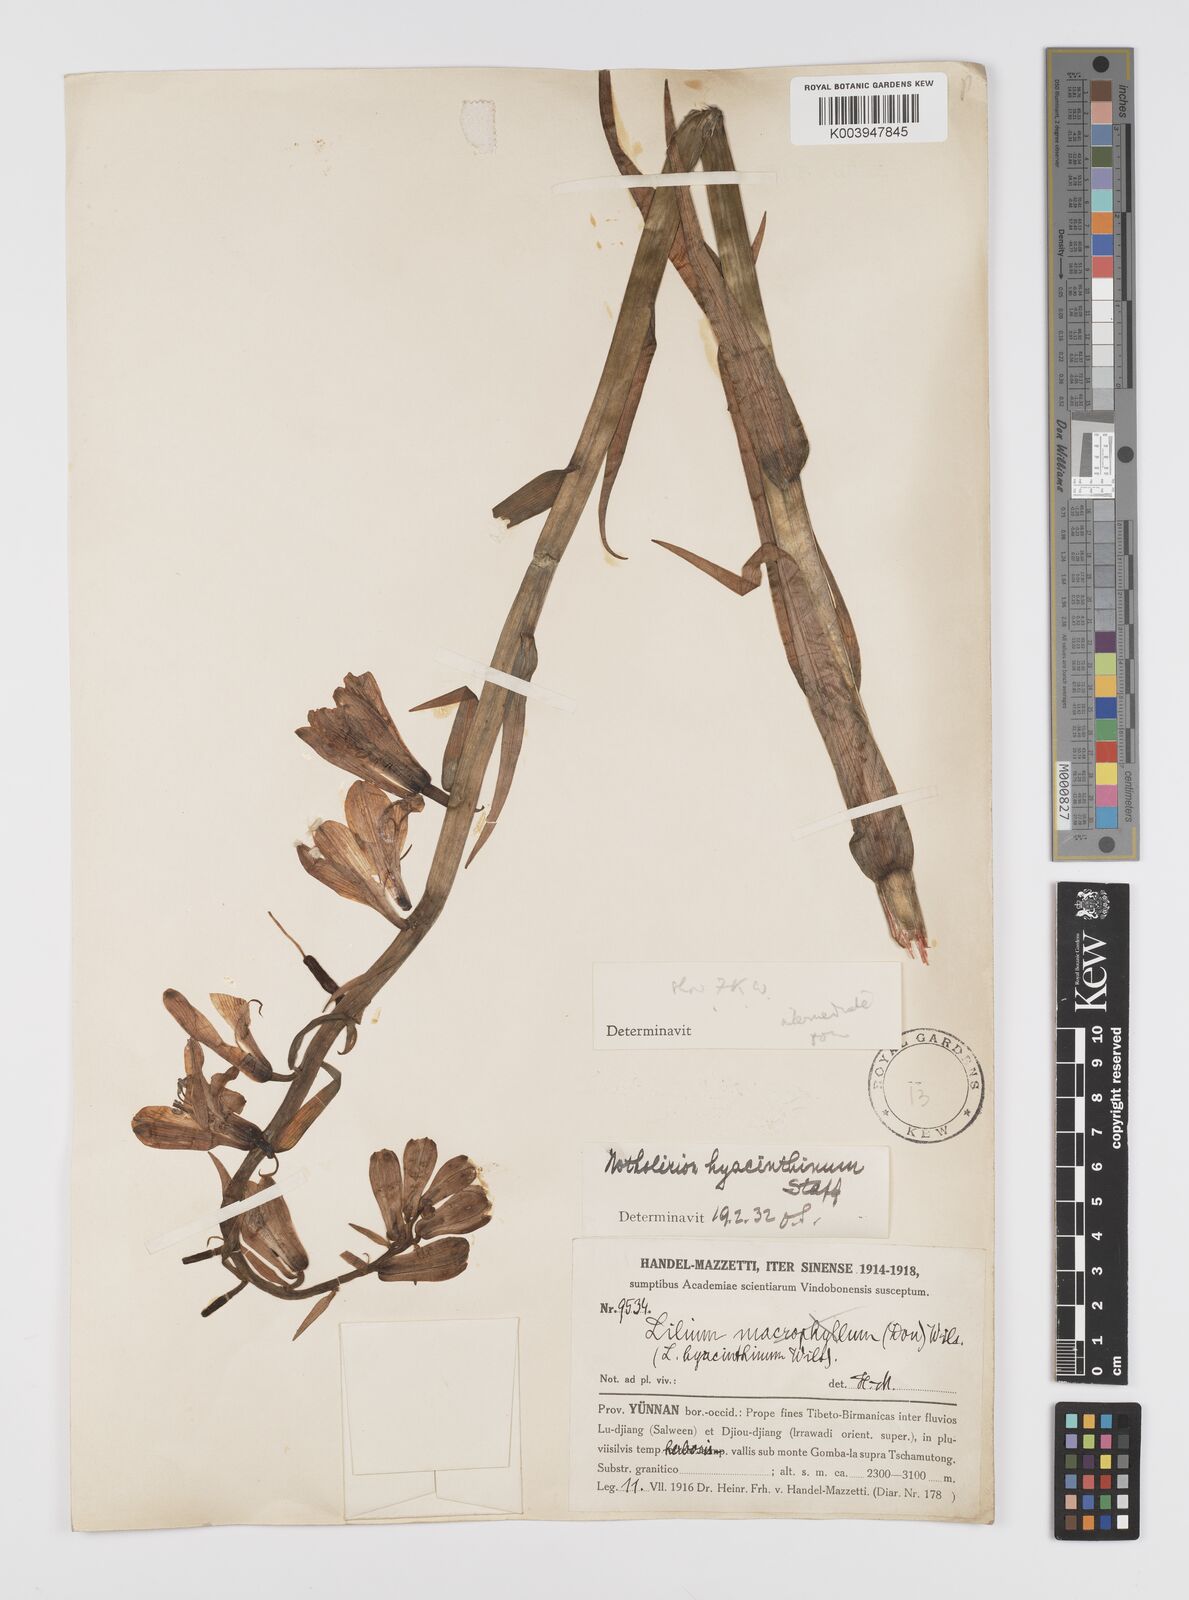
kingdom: Plantae
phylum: Tracheophyta
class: Liliopsida
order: Liliales
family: Liliaceae
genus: Notholirion
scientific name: Notholirion bulbuliferum
